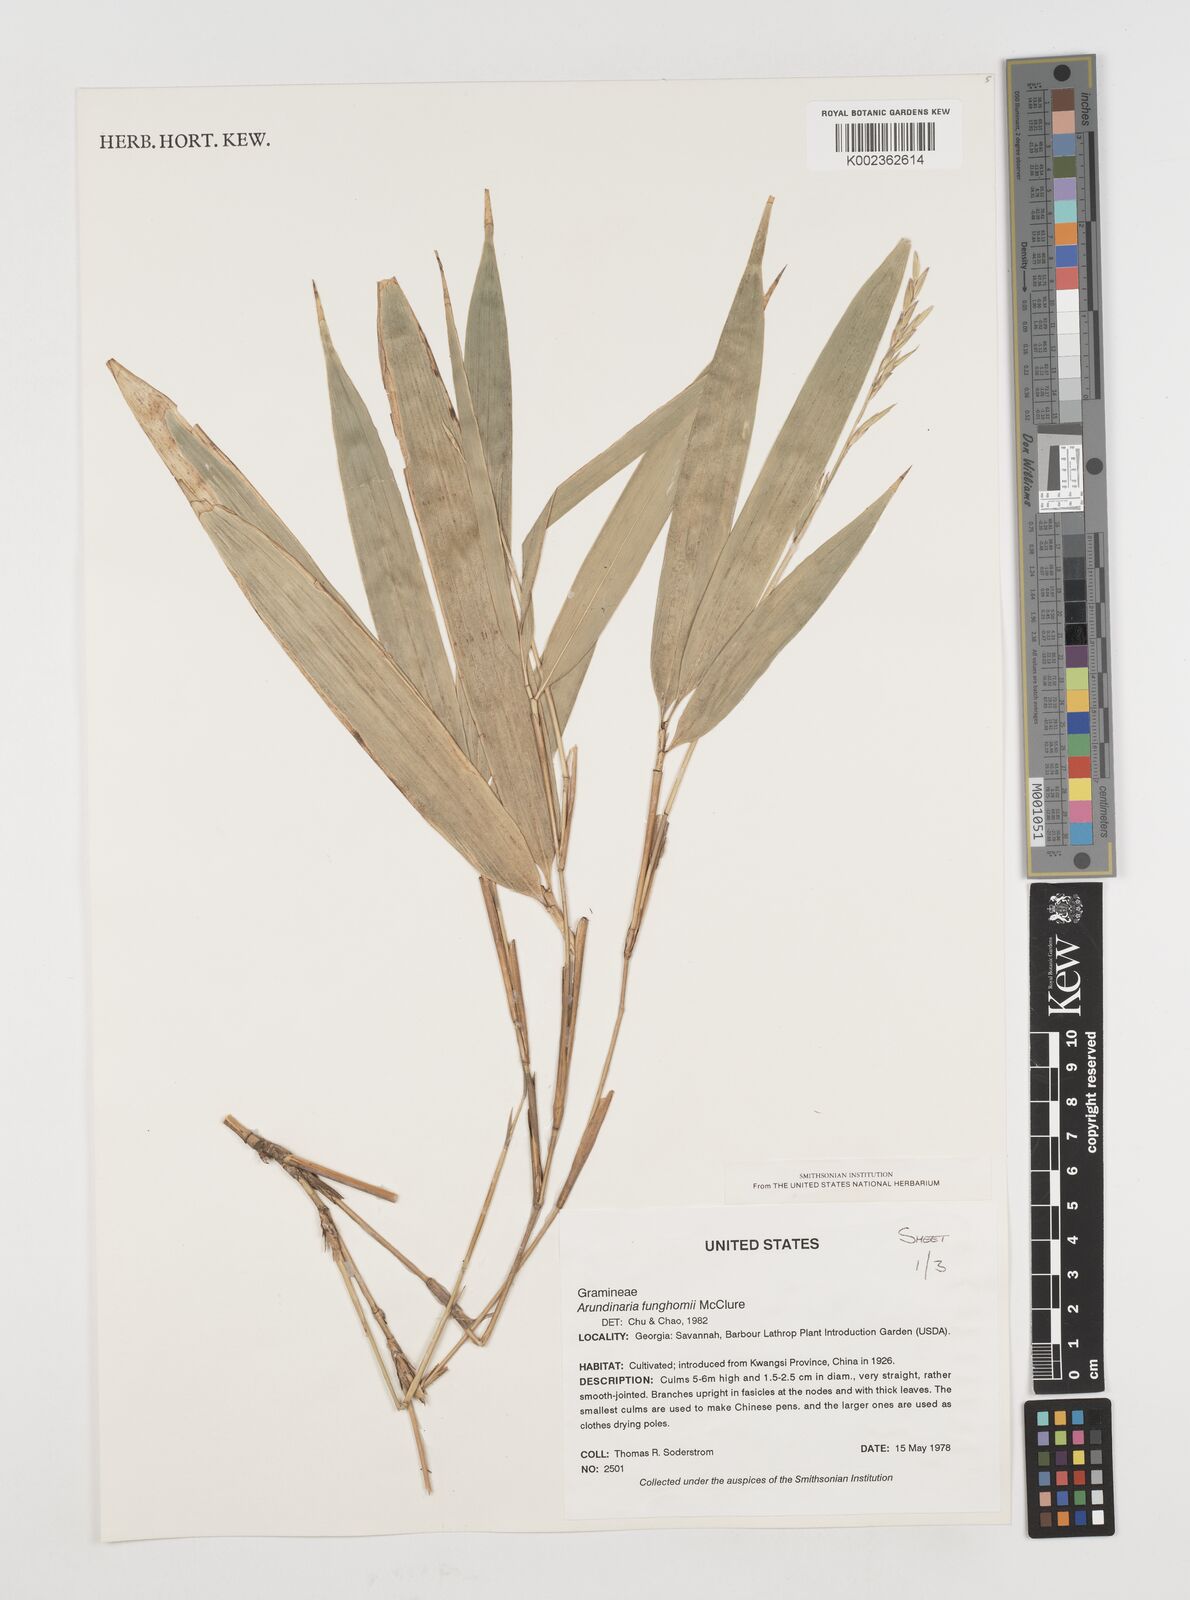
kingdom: Plantae
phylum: Tracheophyta
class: Liliopsida
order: Poales
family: Poaceae
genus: Pseudosasa
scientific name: Pseudosasa
